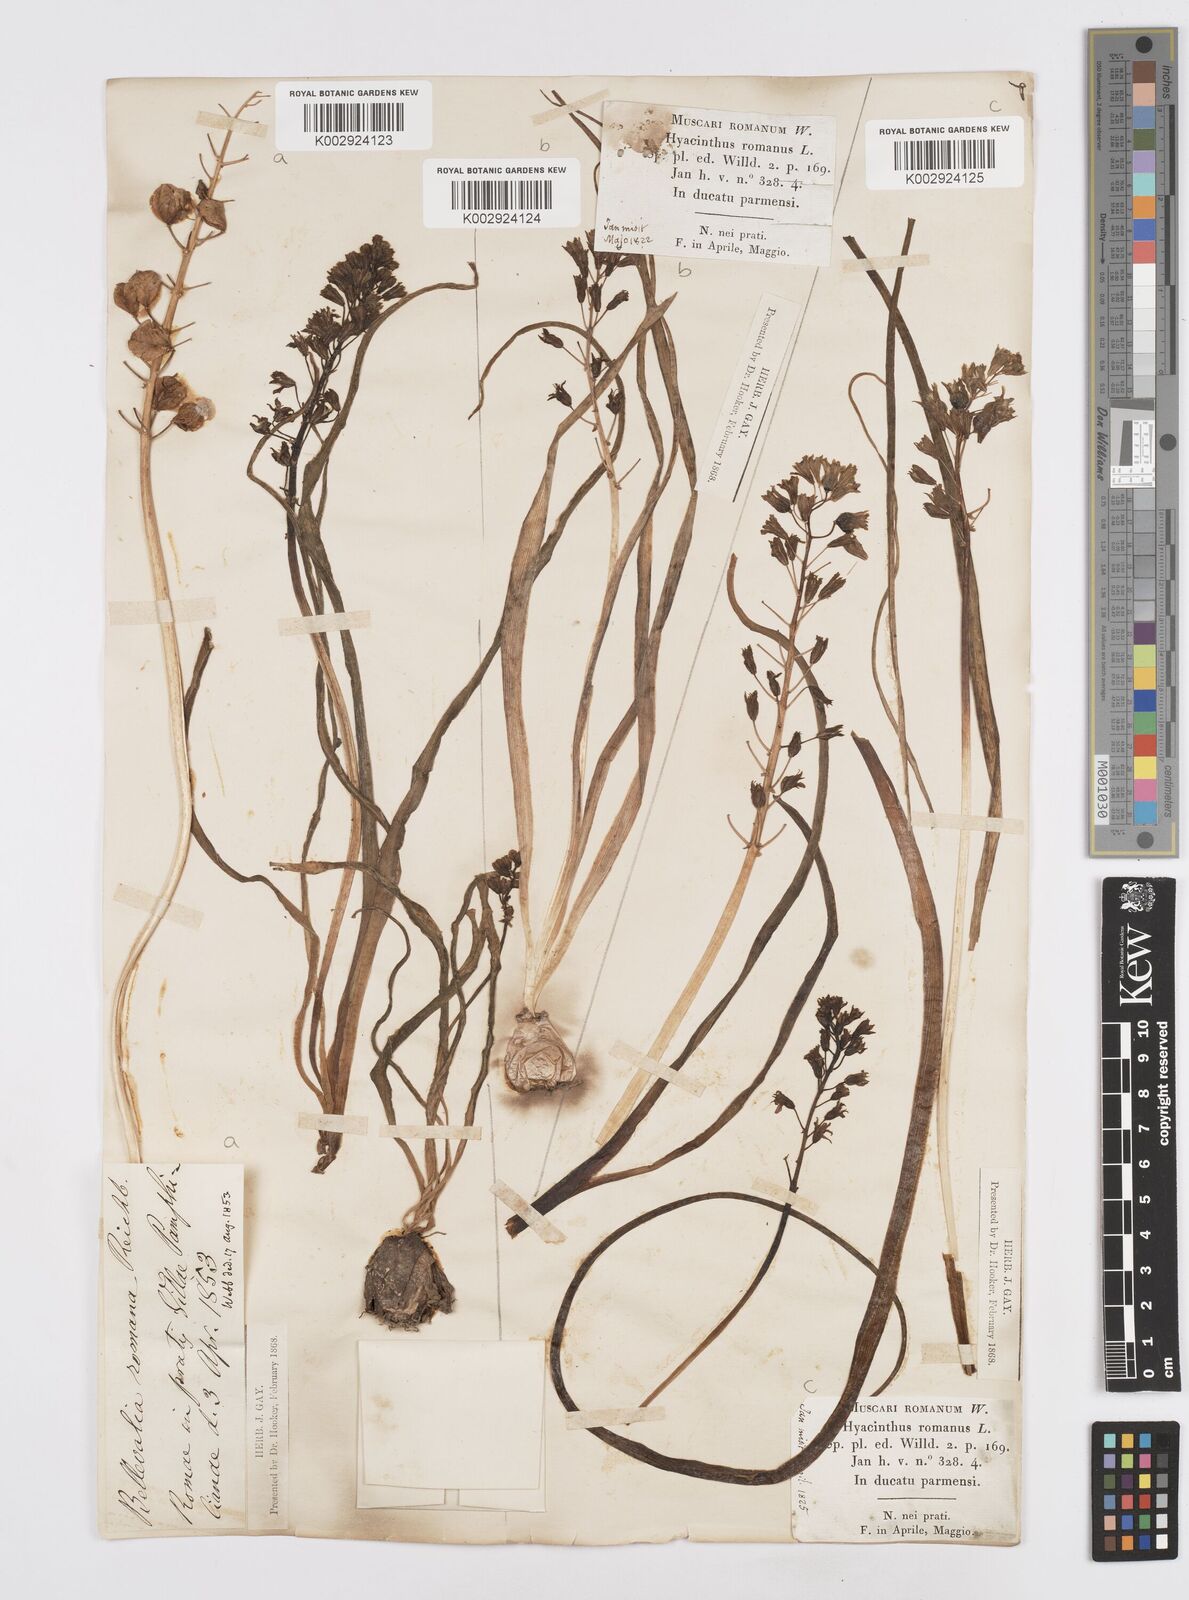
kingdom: Plantae
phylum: Tracheophyta
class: Liliopsida
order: Asparagales
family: Asparagaceae
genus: Bellevalia
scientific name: Bellevalia
